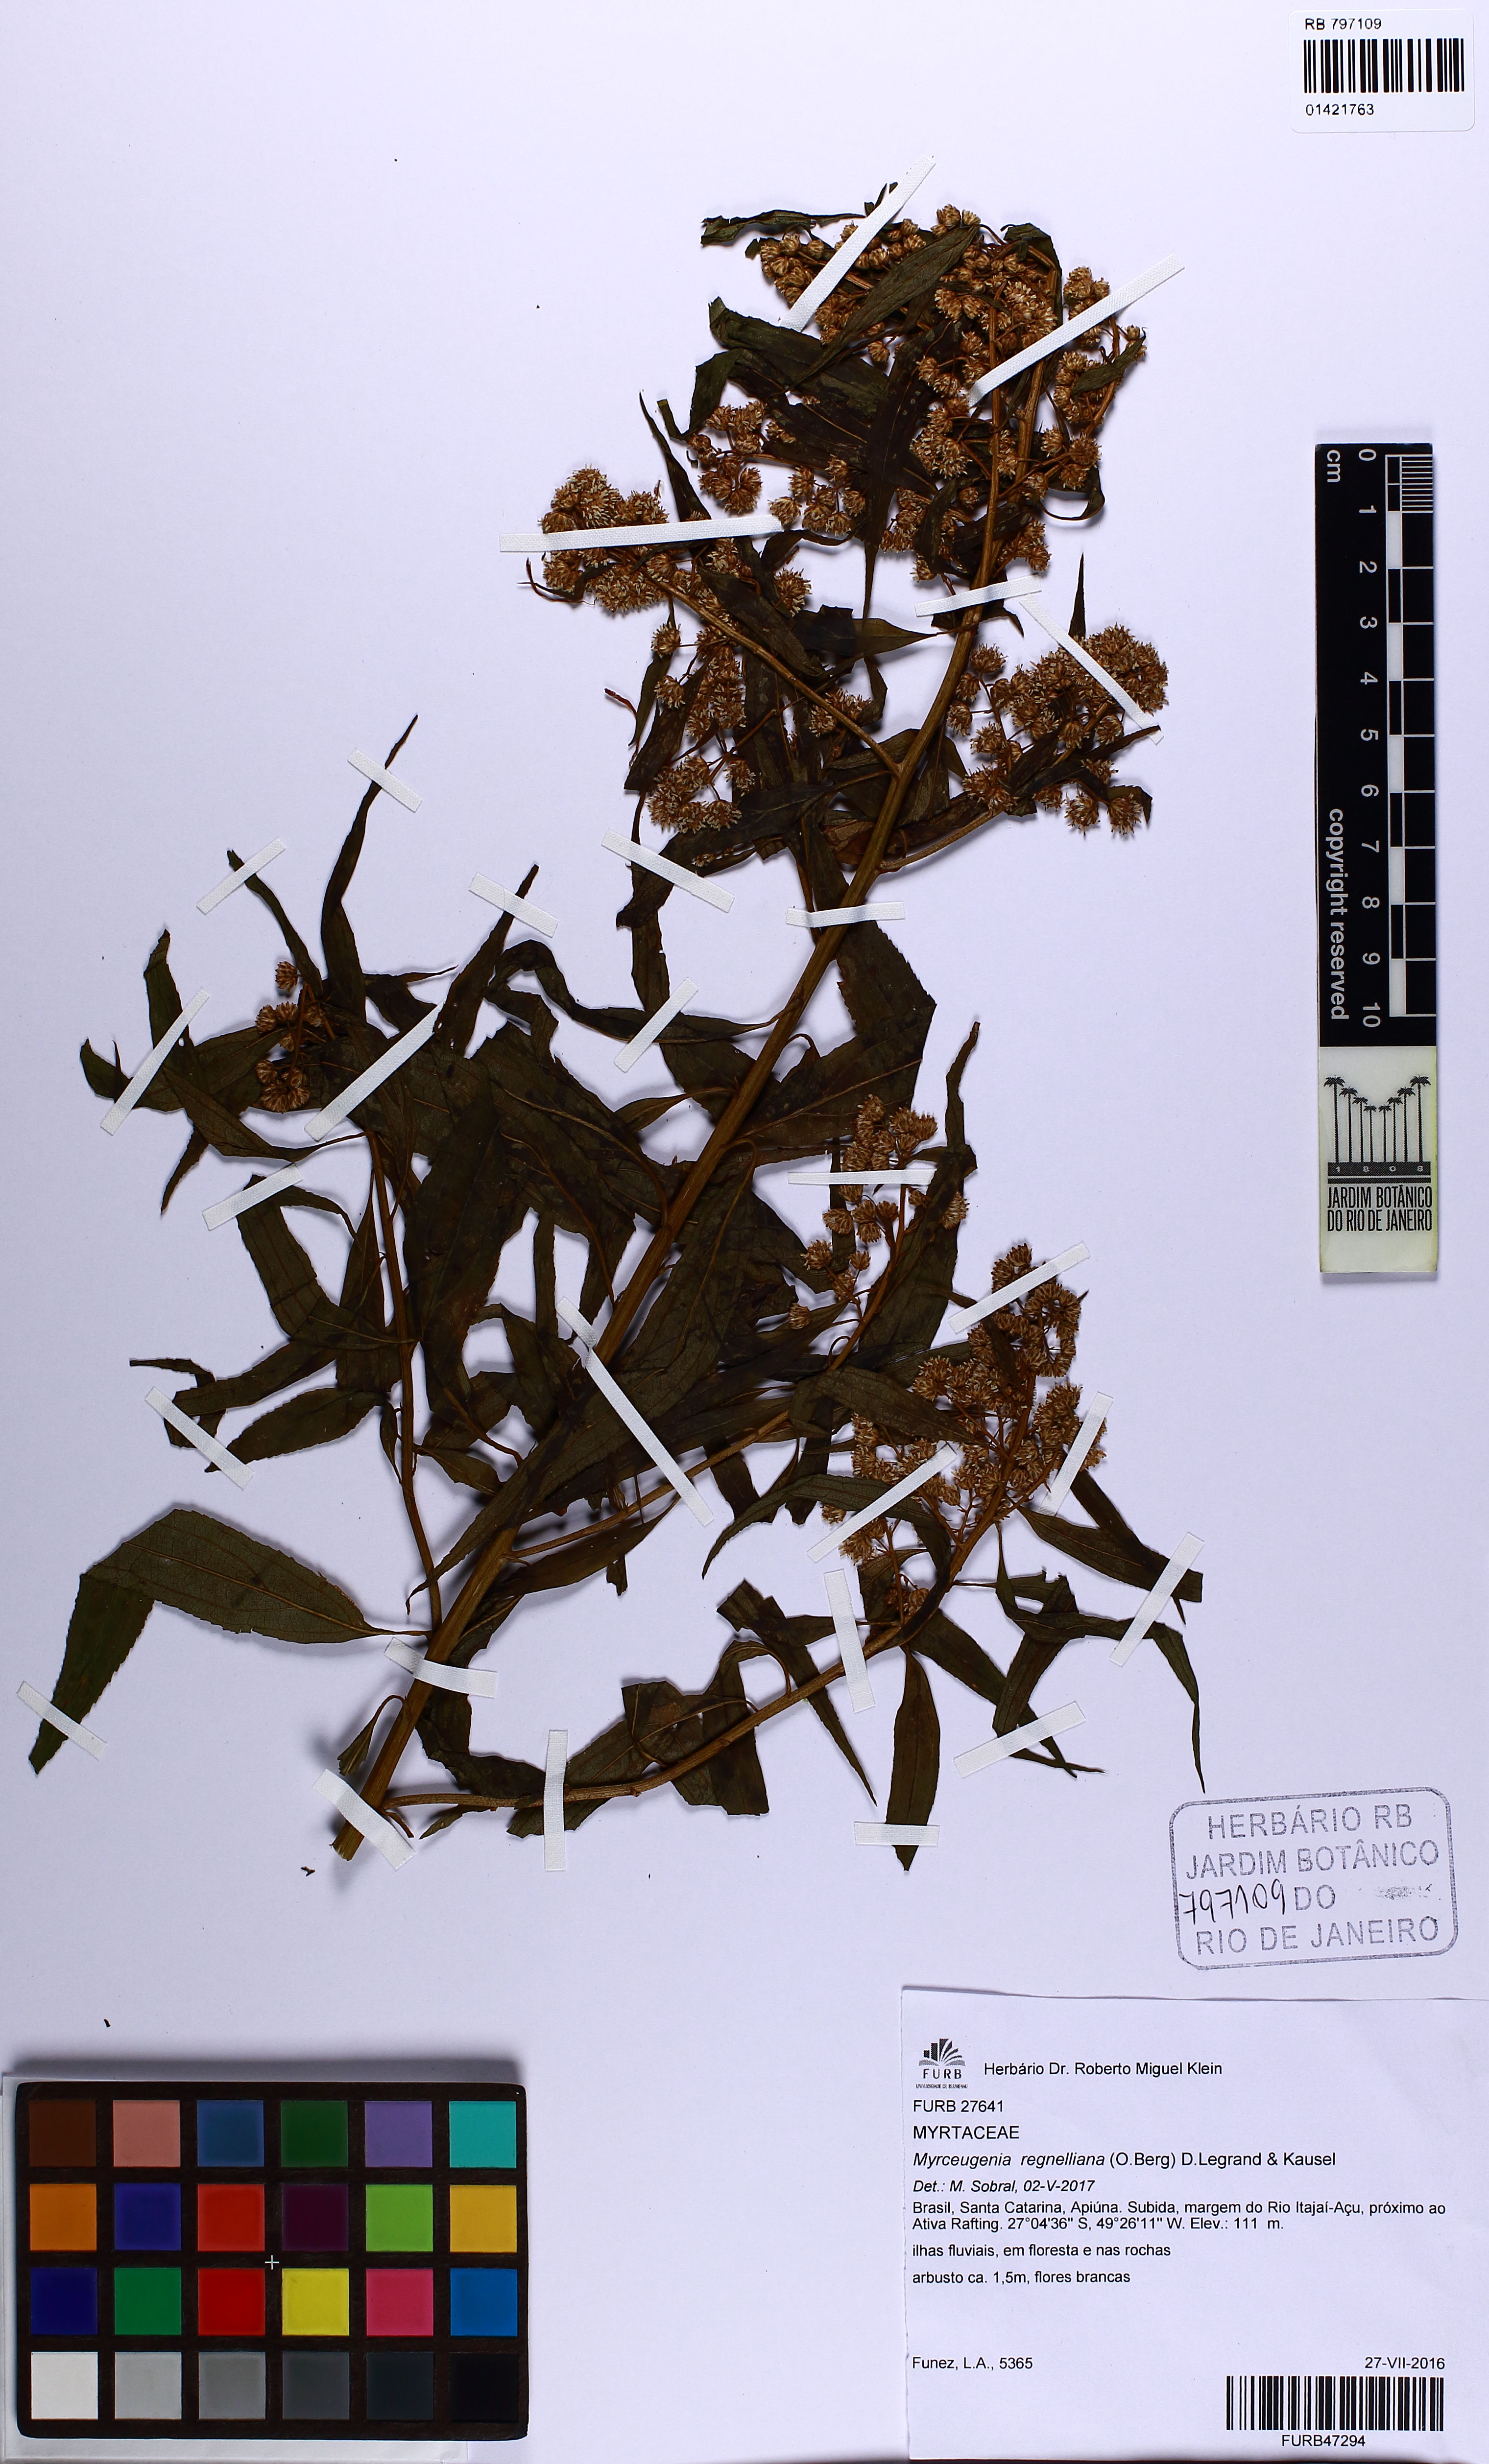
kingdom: Plantae
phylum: Tracheophyta
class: Magnoliopsida
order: Myrtales
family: Myrtaceae
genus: Myrceugenia
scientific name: Myrceugenia ovata
